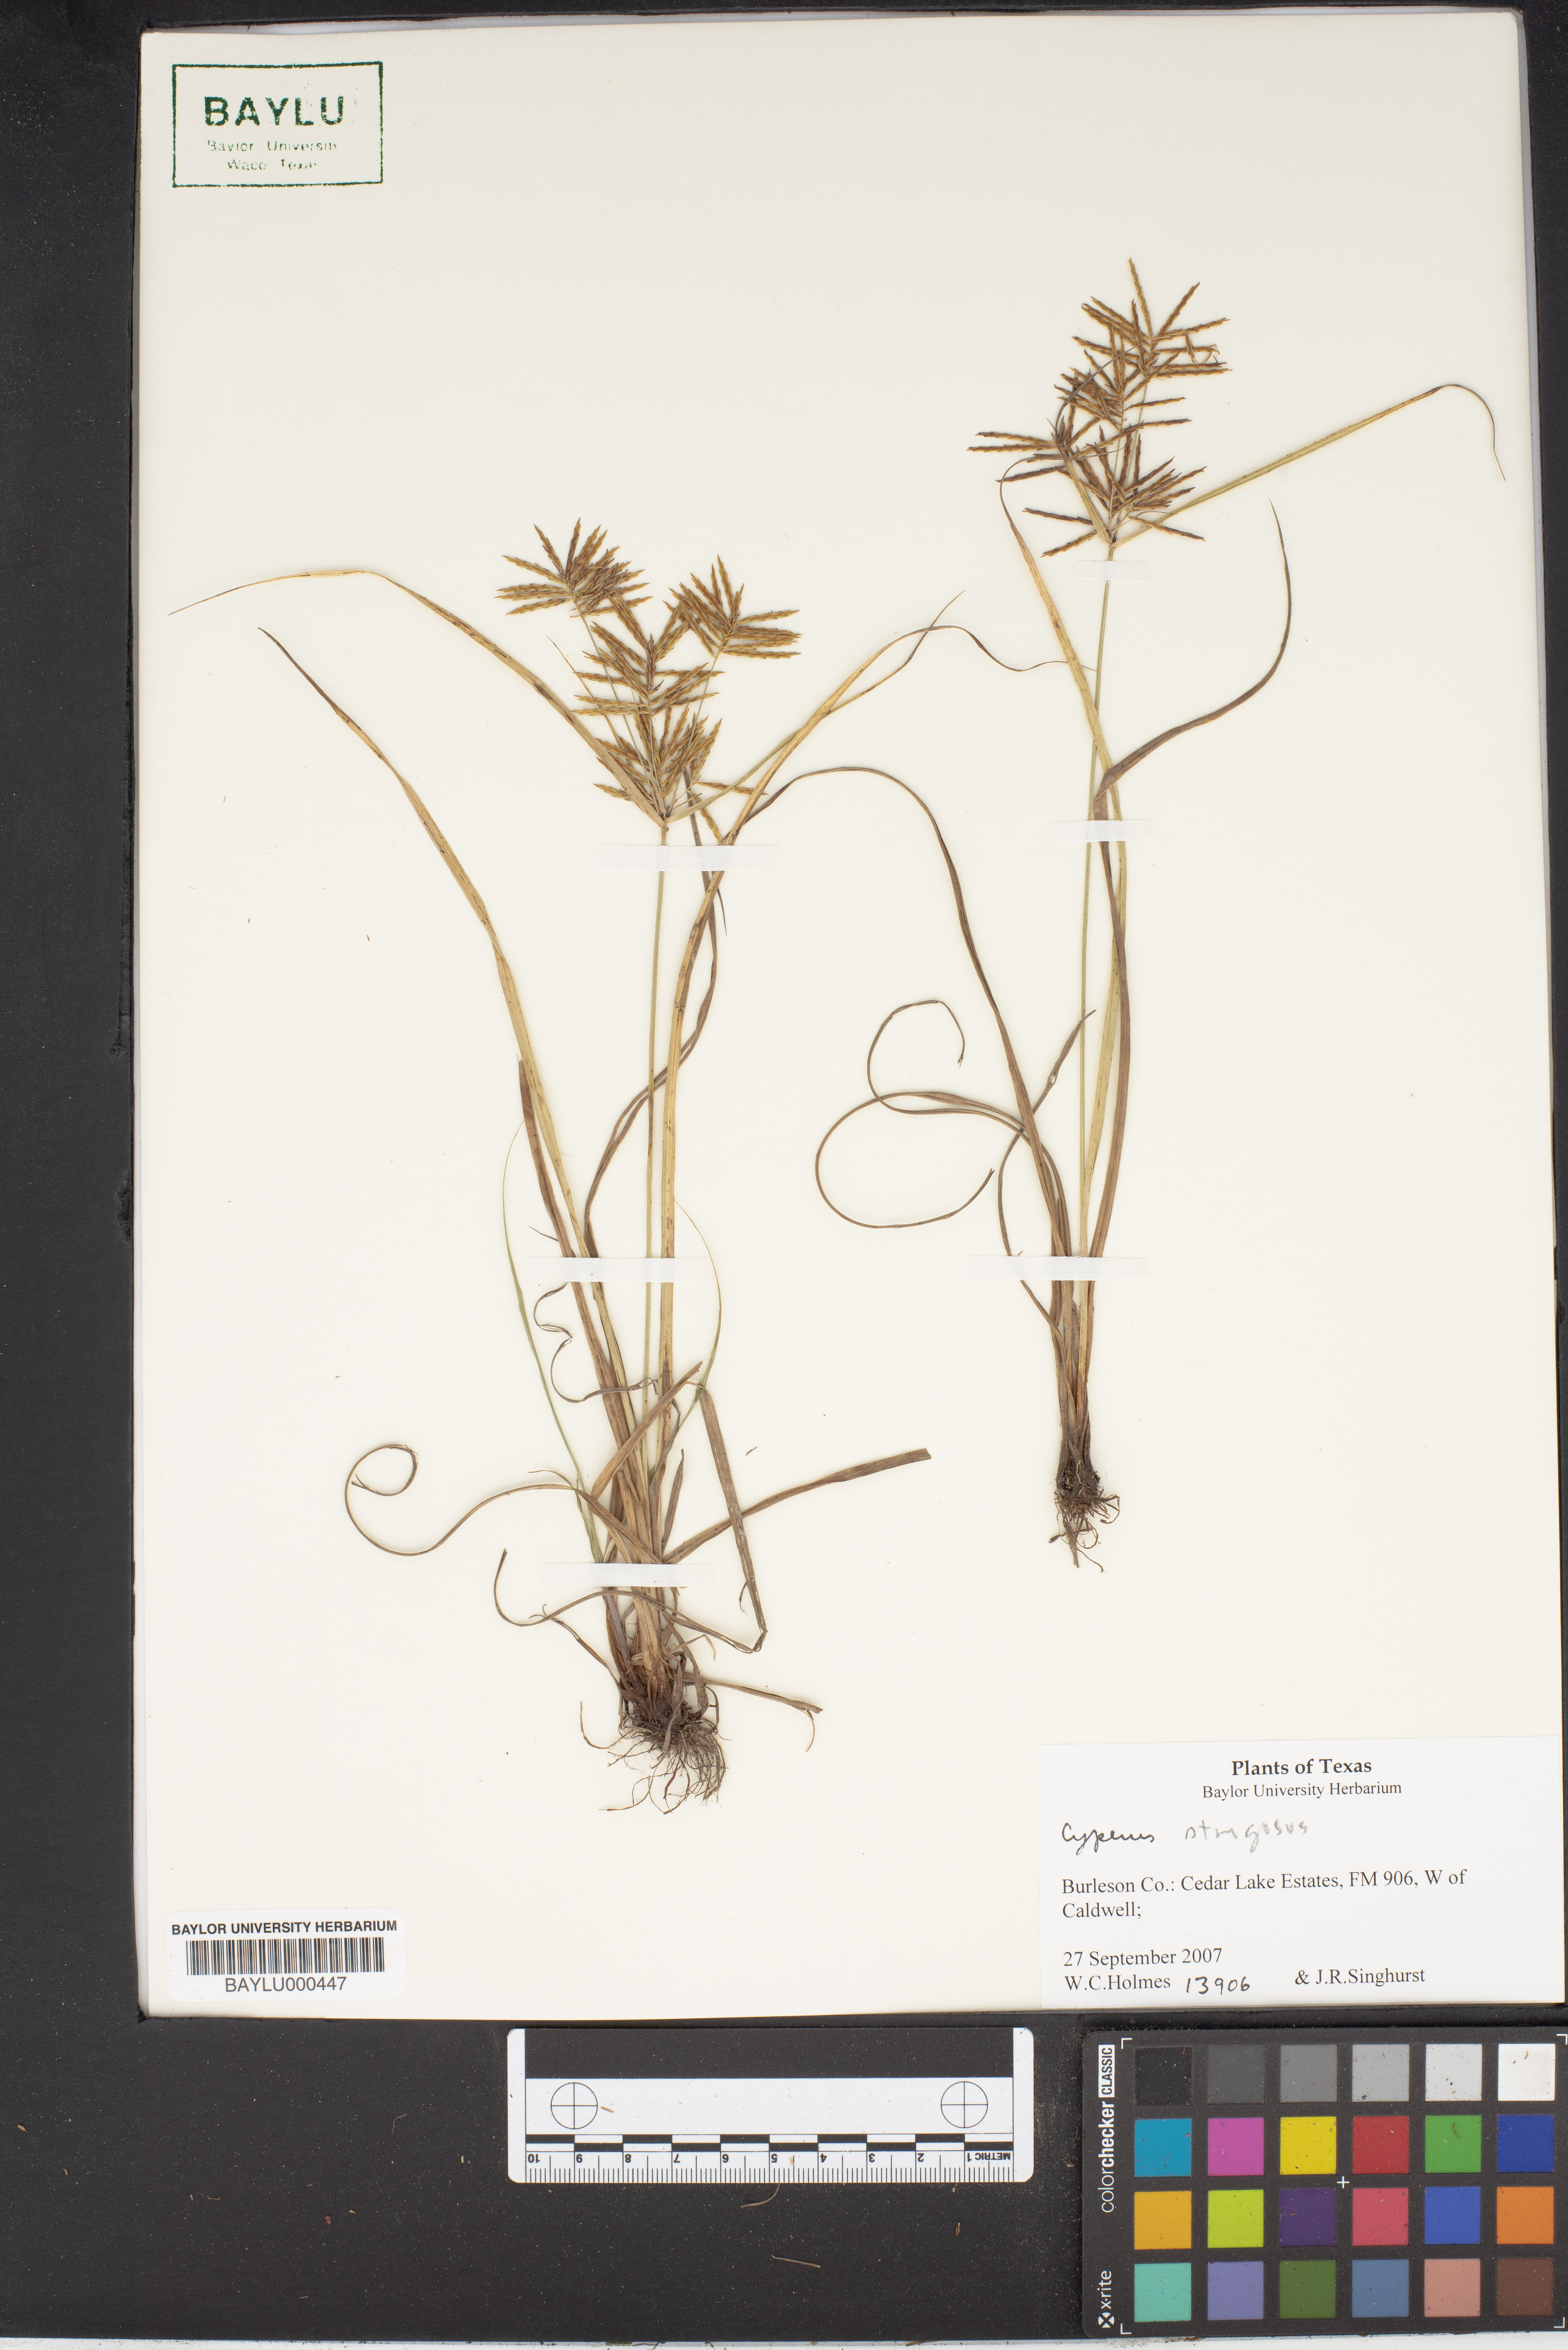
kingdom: Plantae
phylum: Tracheophyta
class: Liliopsida
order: Poales
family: Cyperaceae
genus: Cyperus
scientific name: Cyperus strigosus
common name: False nutsedge
